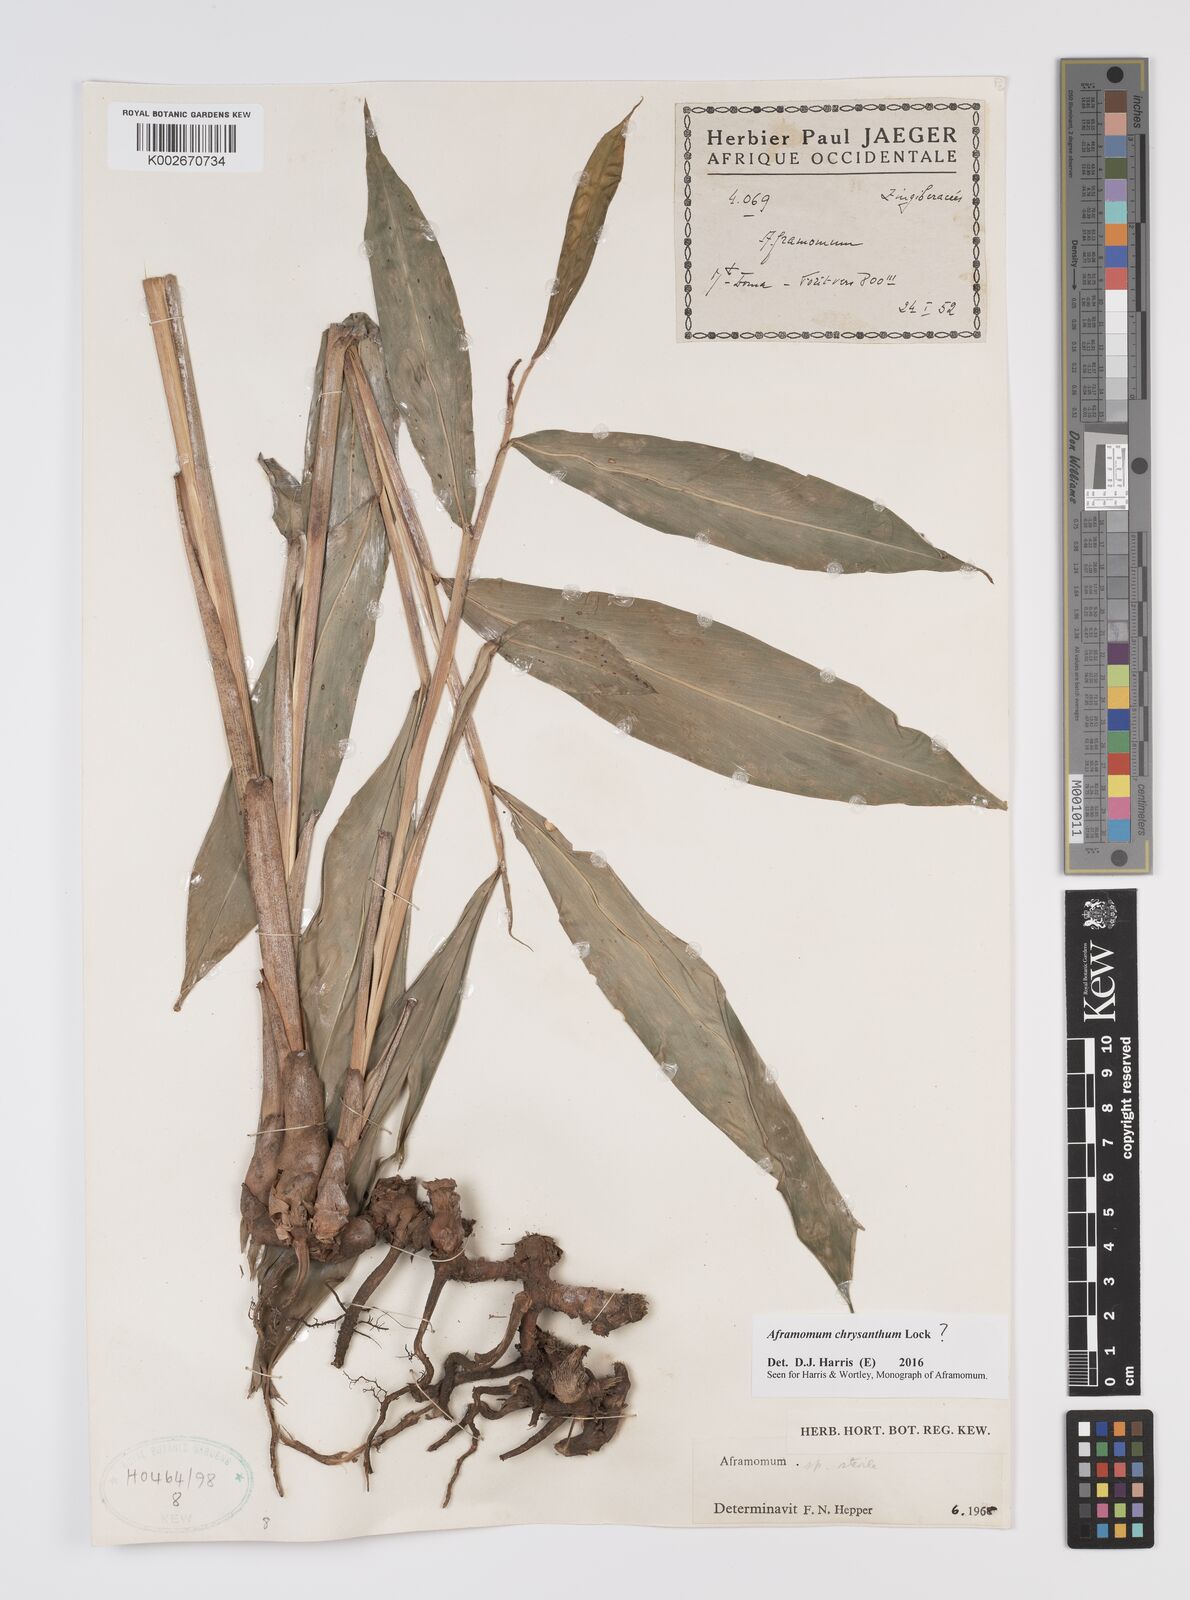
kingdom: Plantae
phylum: Tracheophyta
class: Liliopsida
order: Zingiberales
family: Zingiberaceae
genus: Aframomum
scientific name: Aframomum chrysanthum
